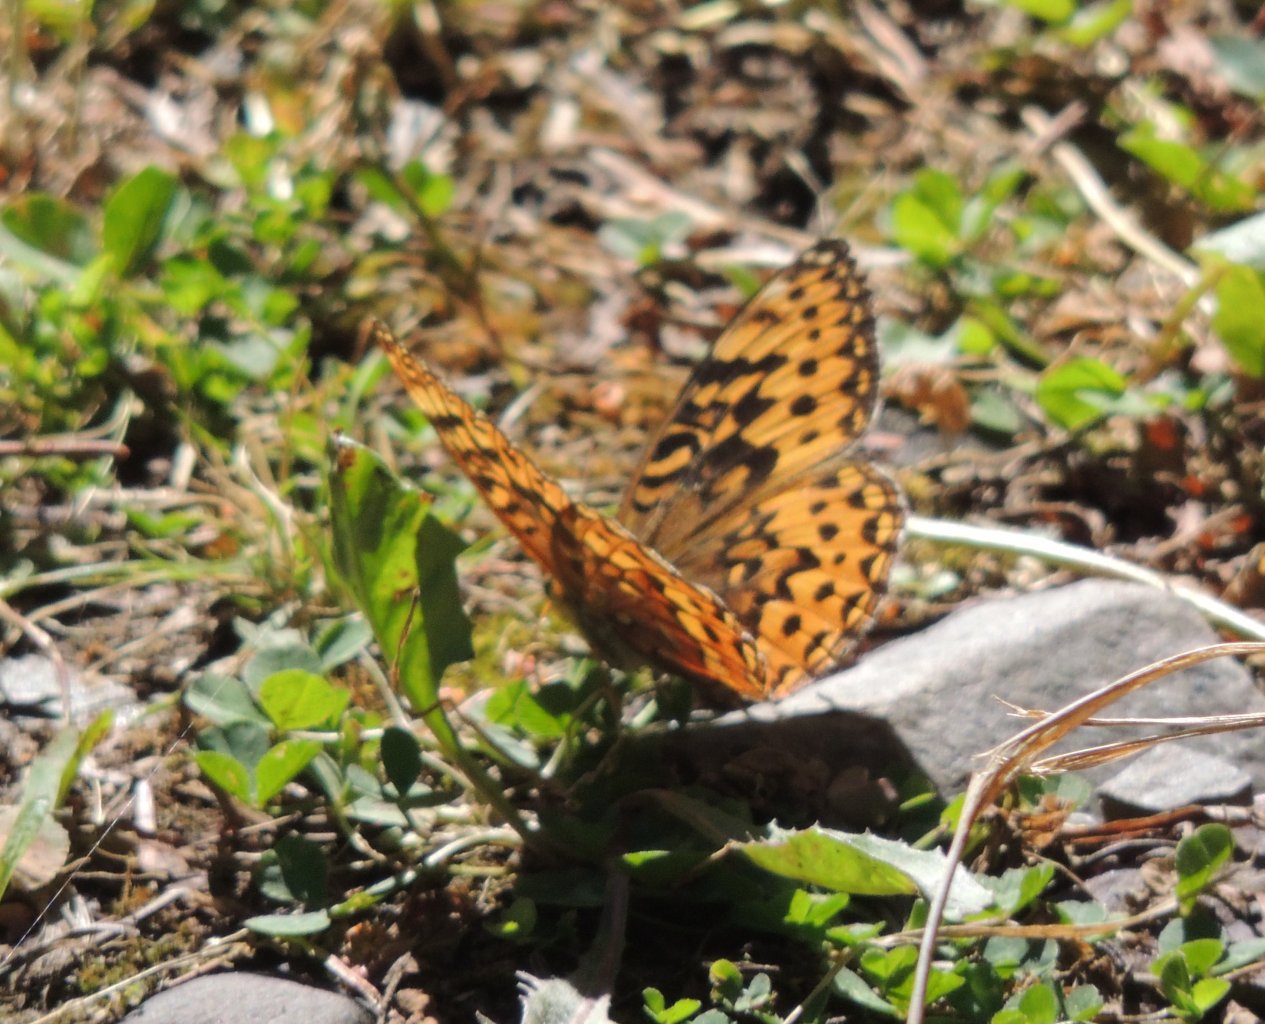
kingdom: Animalia
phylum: Arthropoda
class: Insecta
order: Lepidoptera
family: Nymphalidae
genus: Speyeria
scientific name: Speyeria zerene
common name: Zerene Fritillary
